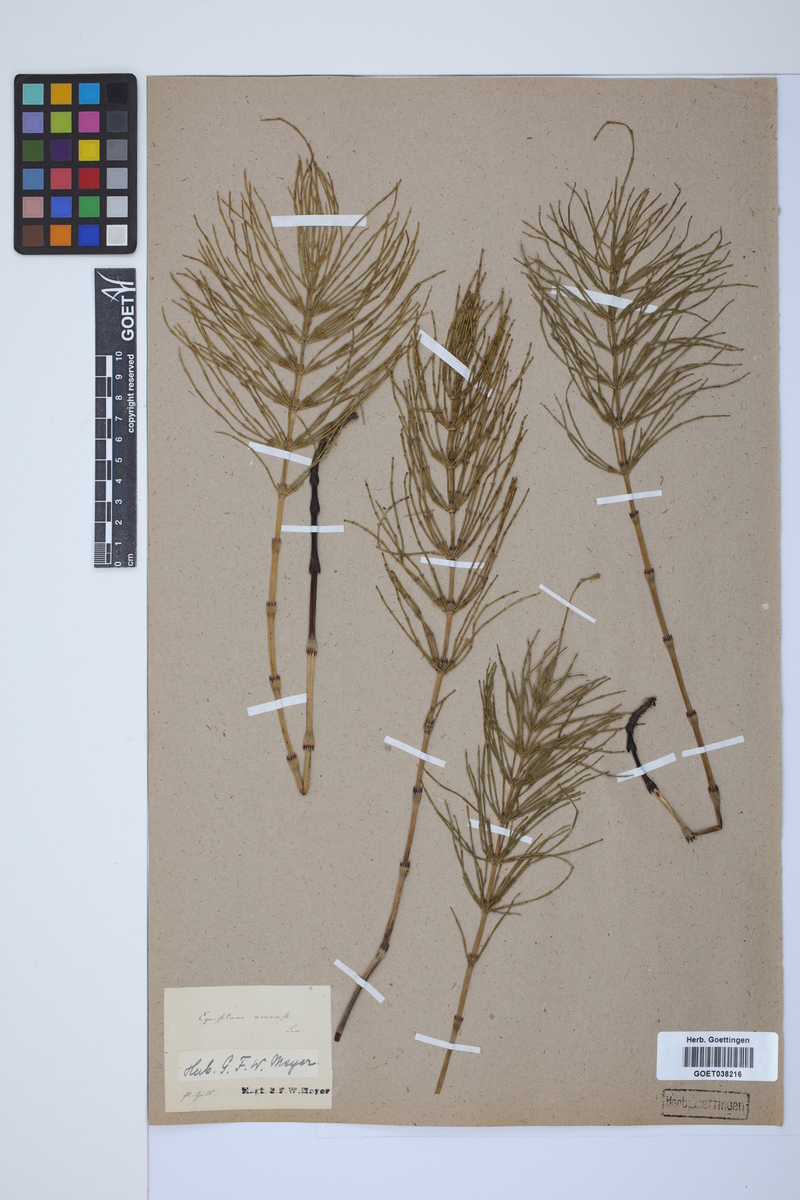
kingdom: Plantae
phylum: Tracheophyta
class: Polypodiopsida
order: Equisetales
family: Equisetaceae
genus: Equisetum
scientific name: Equisetum arvense
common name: Field horsetail
